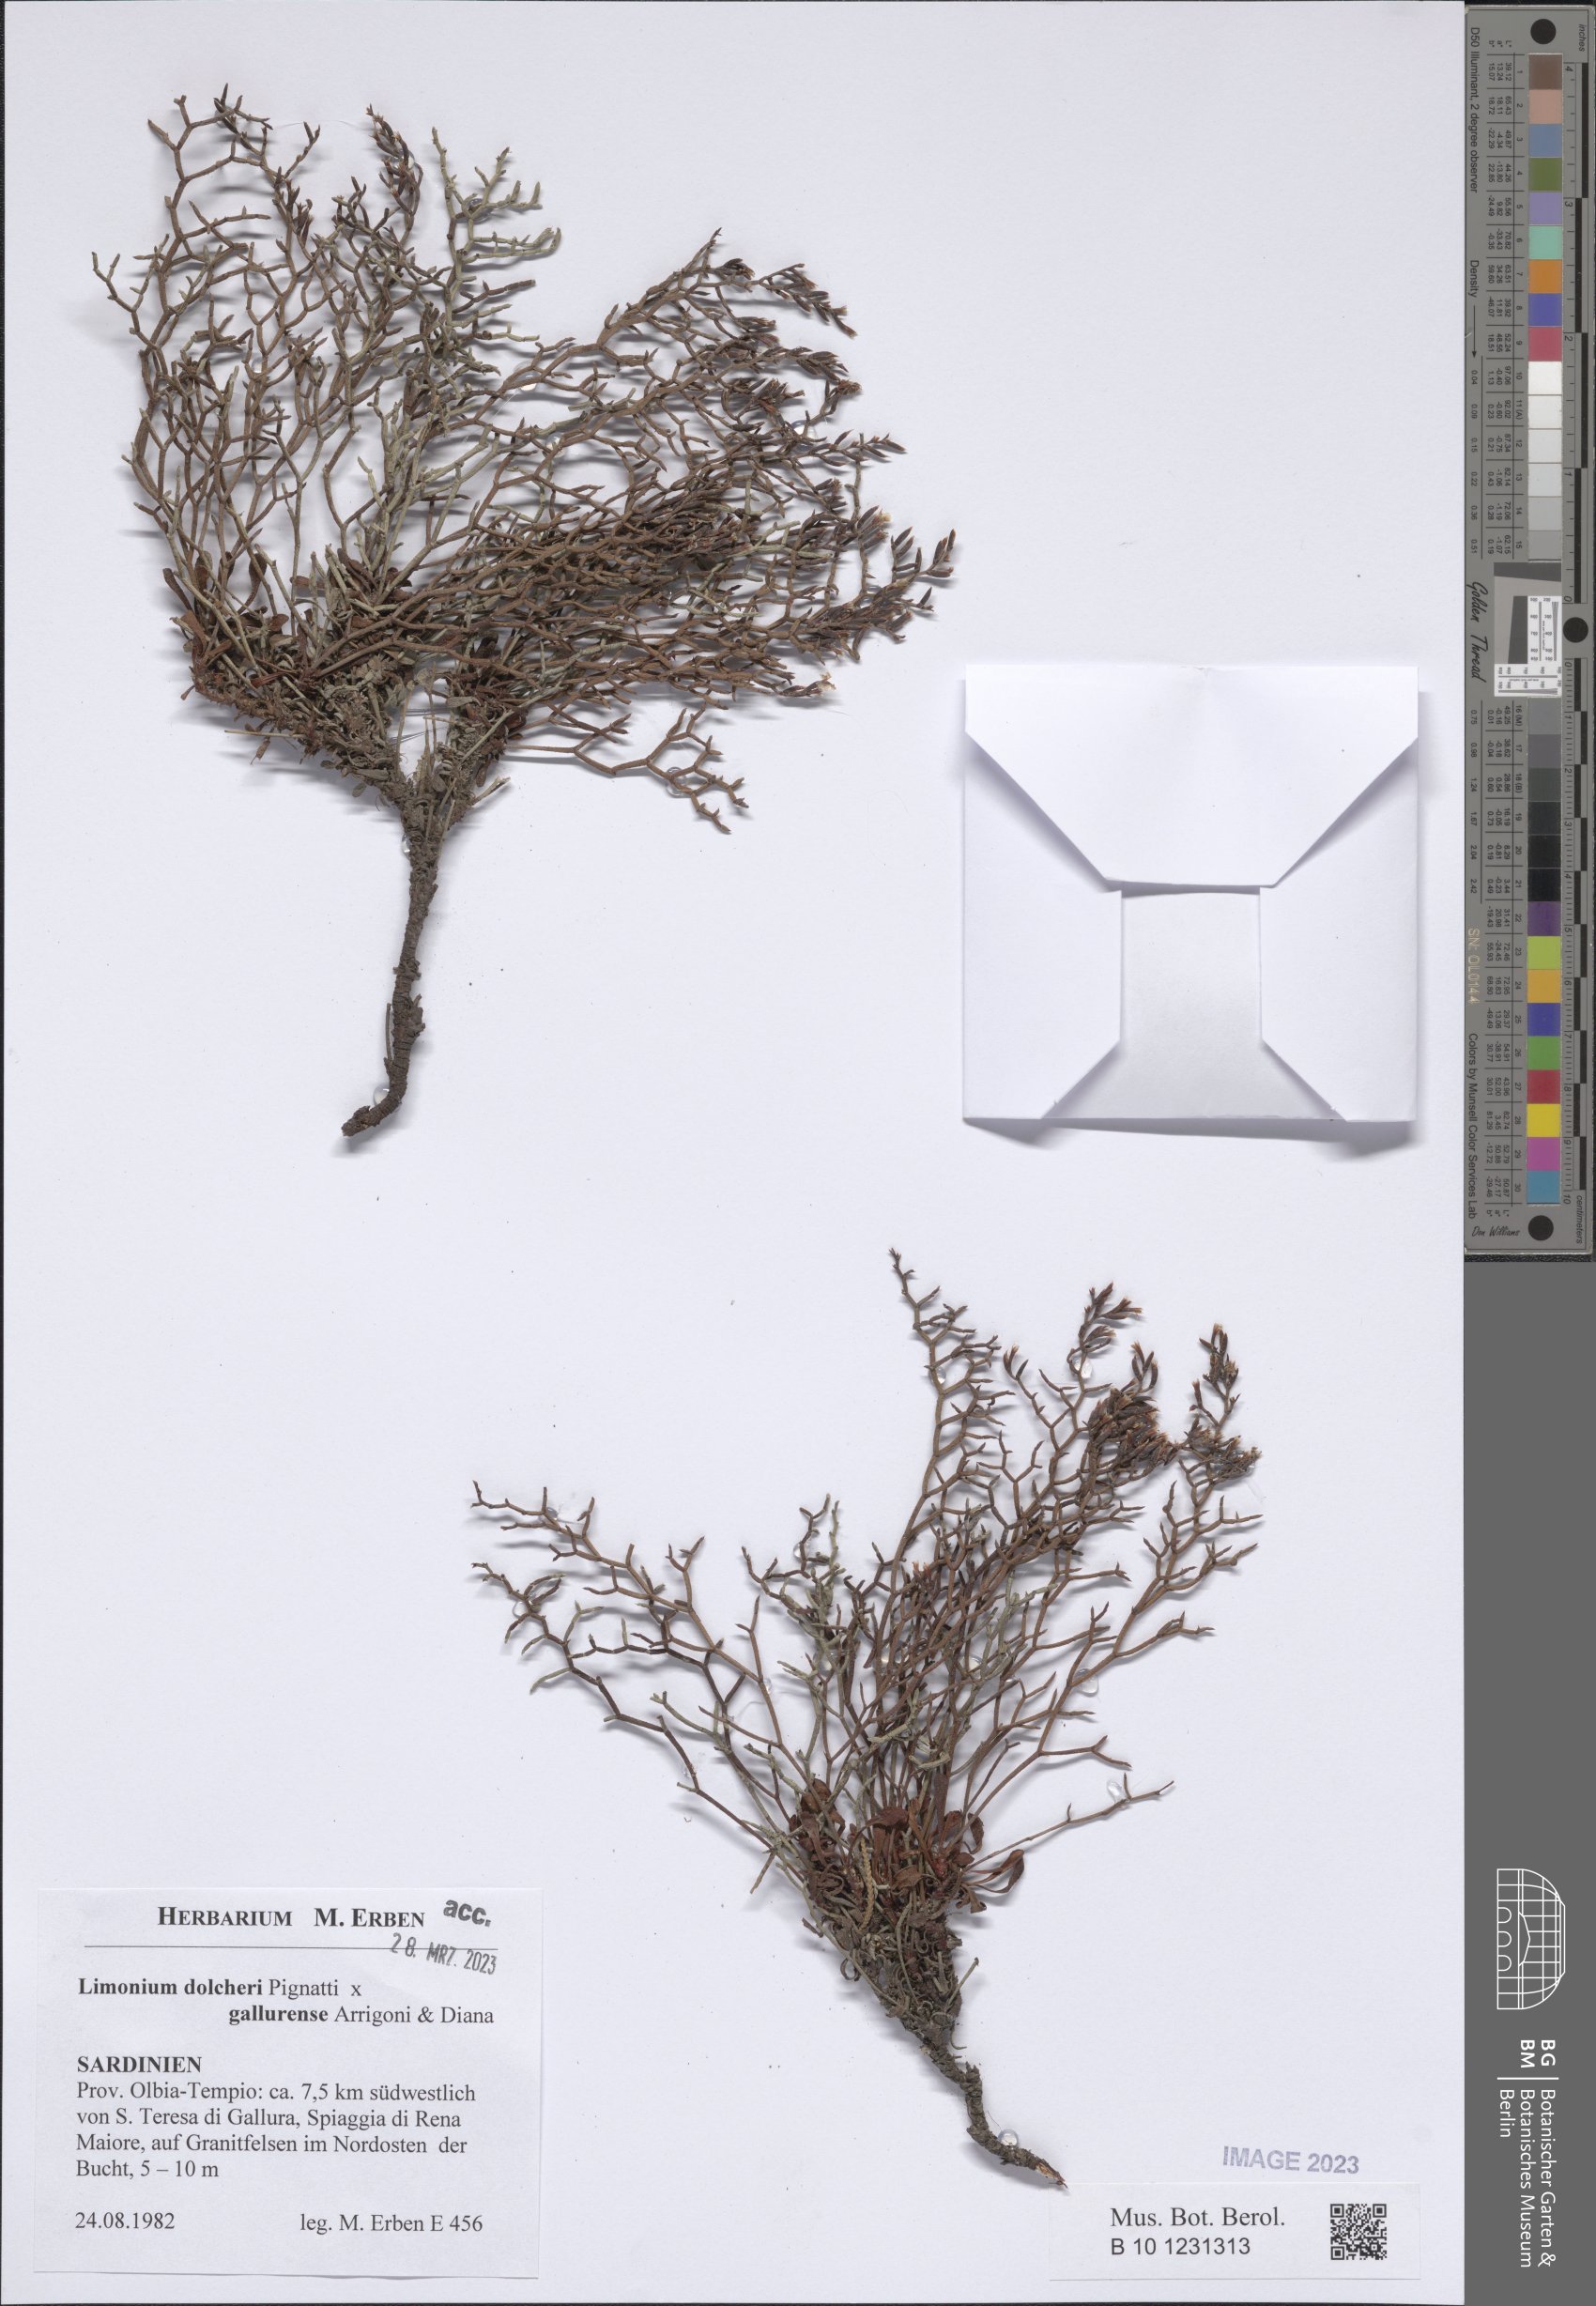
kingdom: Plantae
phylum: Tracheophyta
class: Magnoliopsida
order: Caryophyllales
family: Plumbaginaceae
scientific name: Plumbaginaceae
